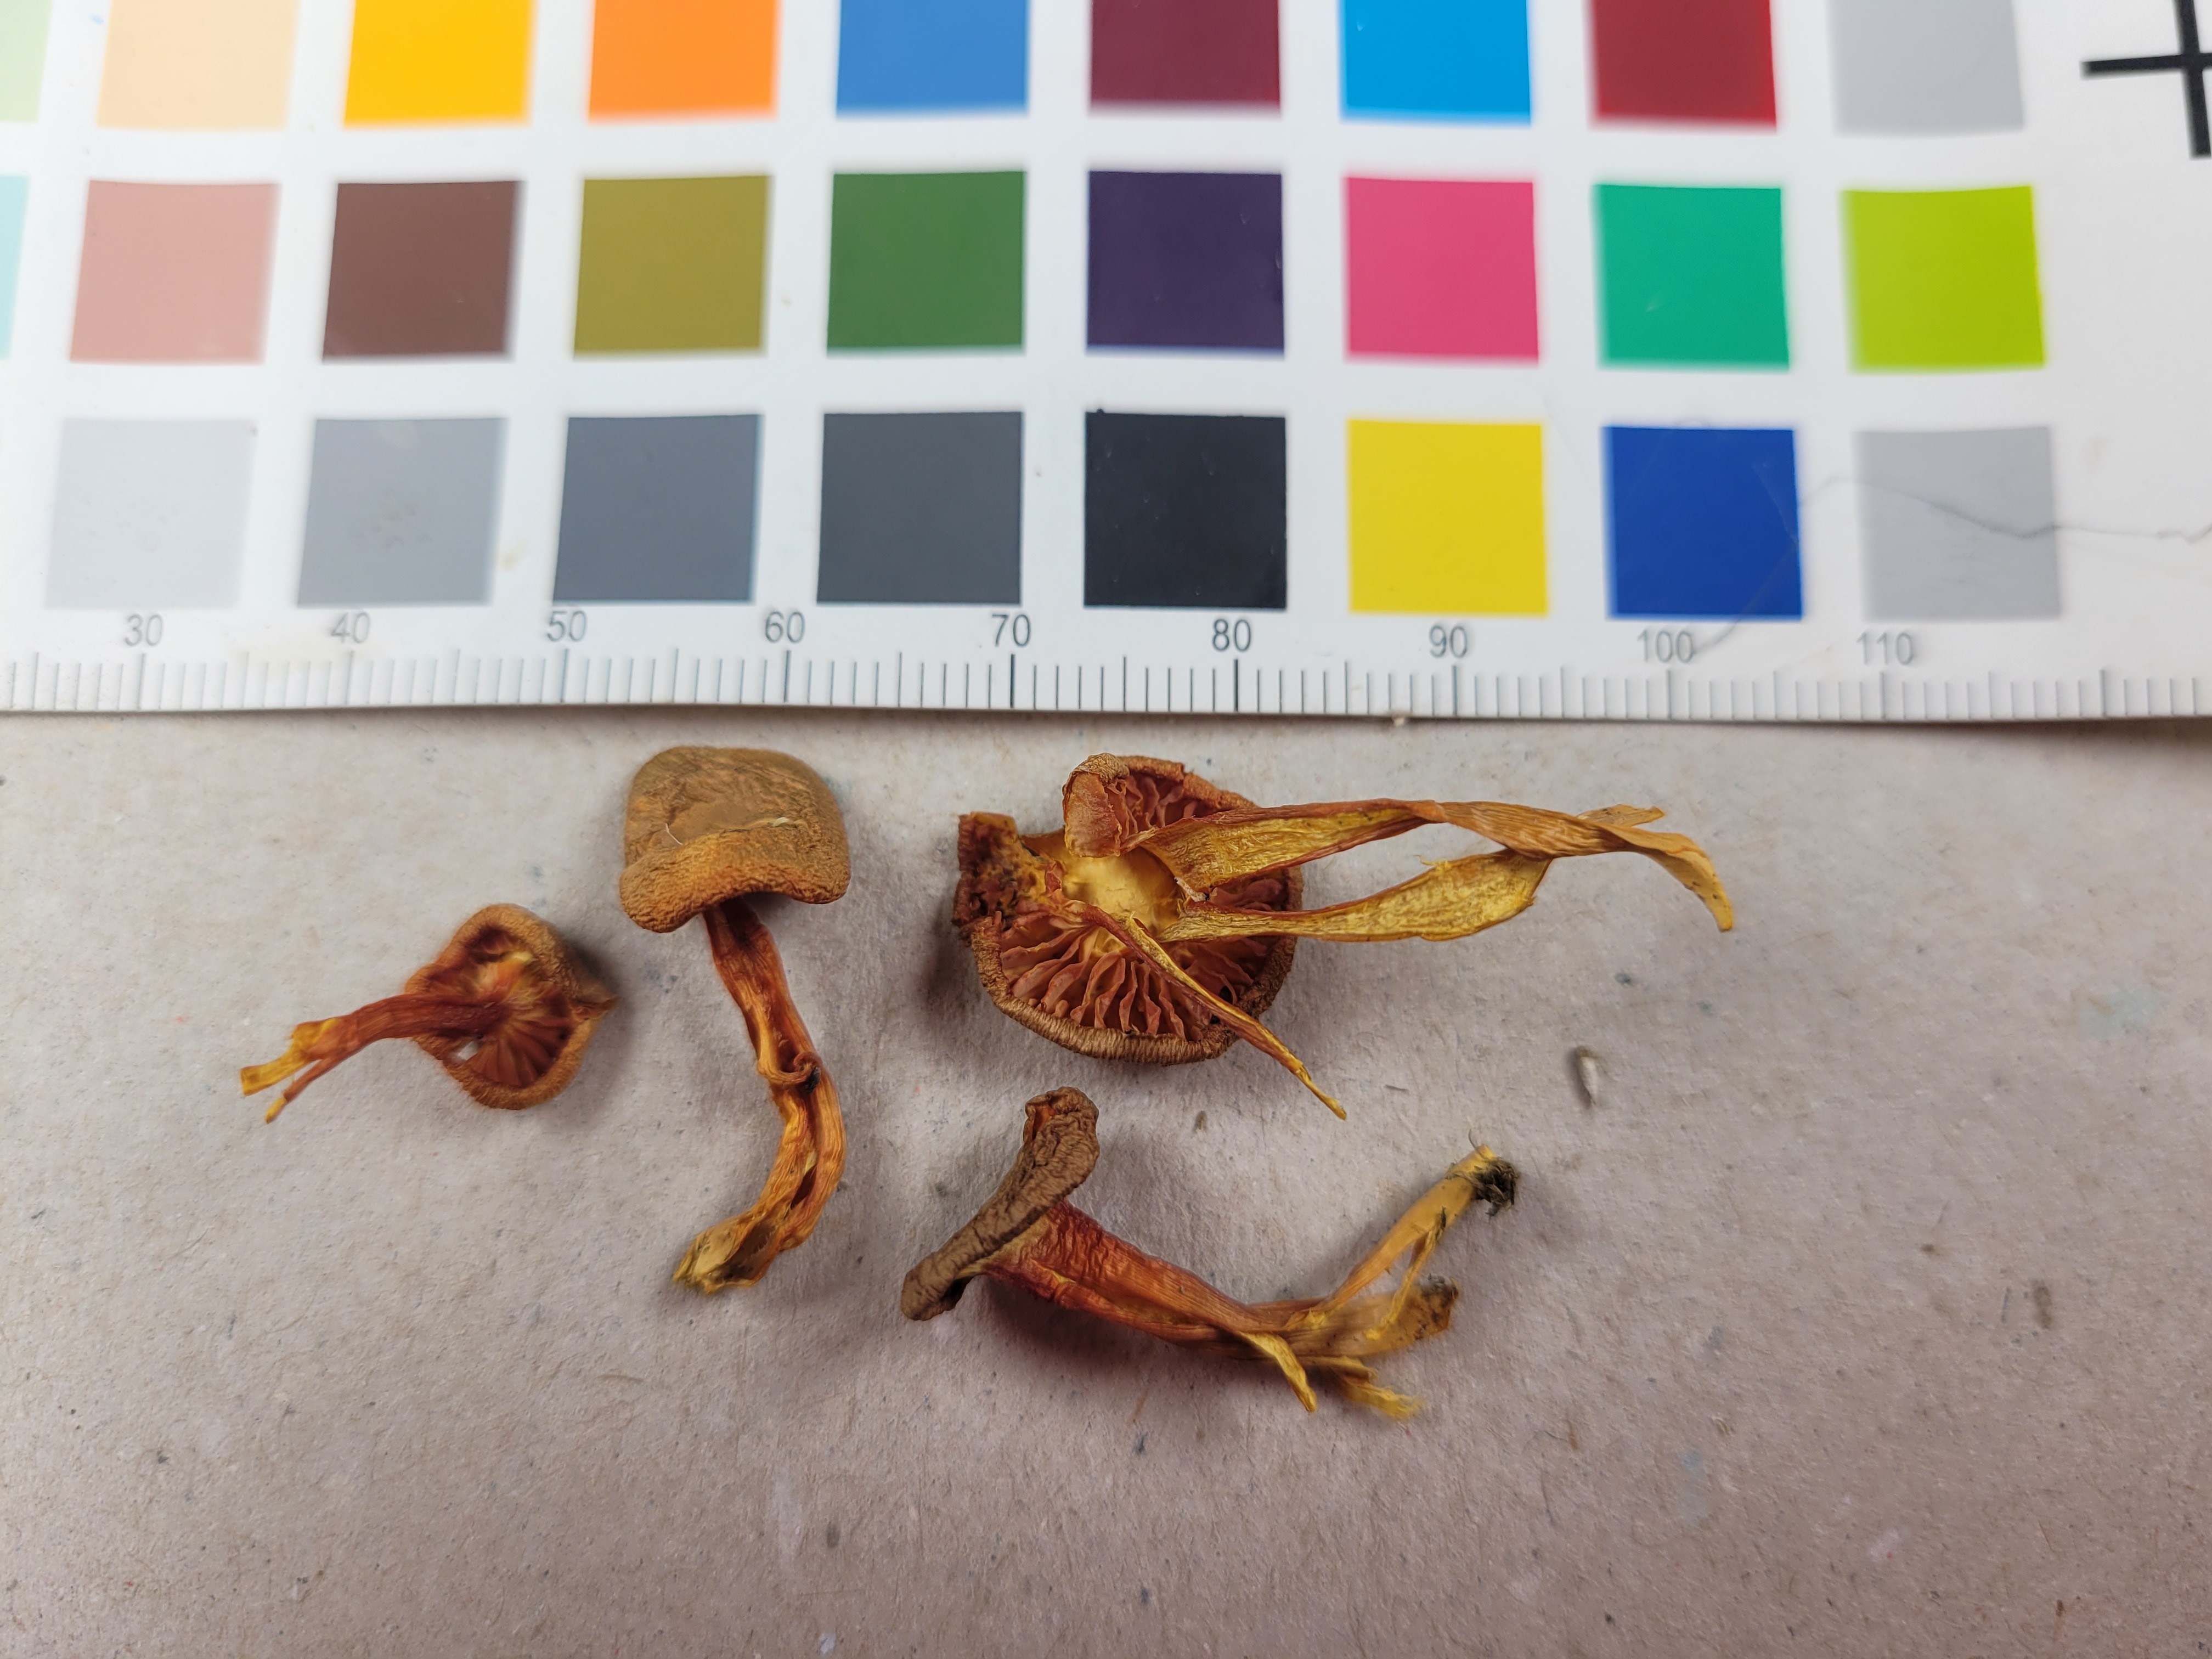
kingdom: Fungi
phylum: Basidiomycota
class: Agaricomycetes
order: Agaricales
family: Hygrophoraceae
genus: Hygrocybe
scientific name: Hygrocybe
